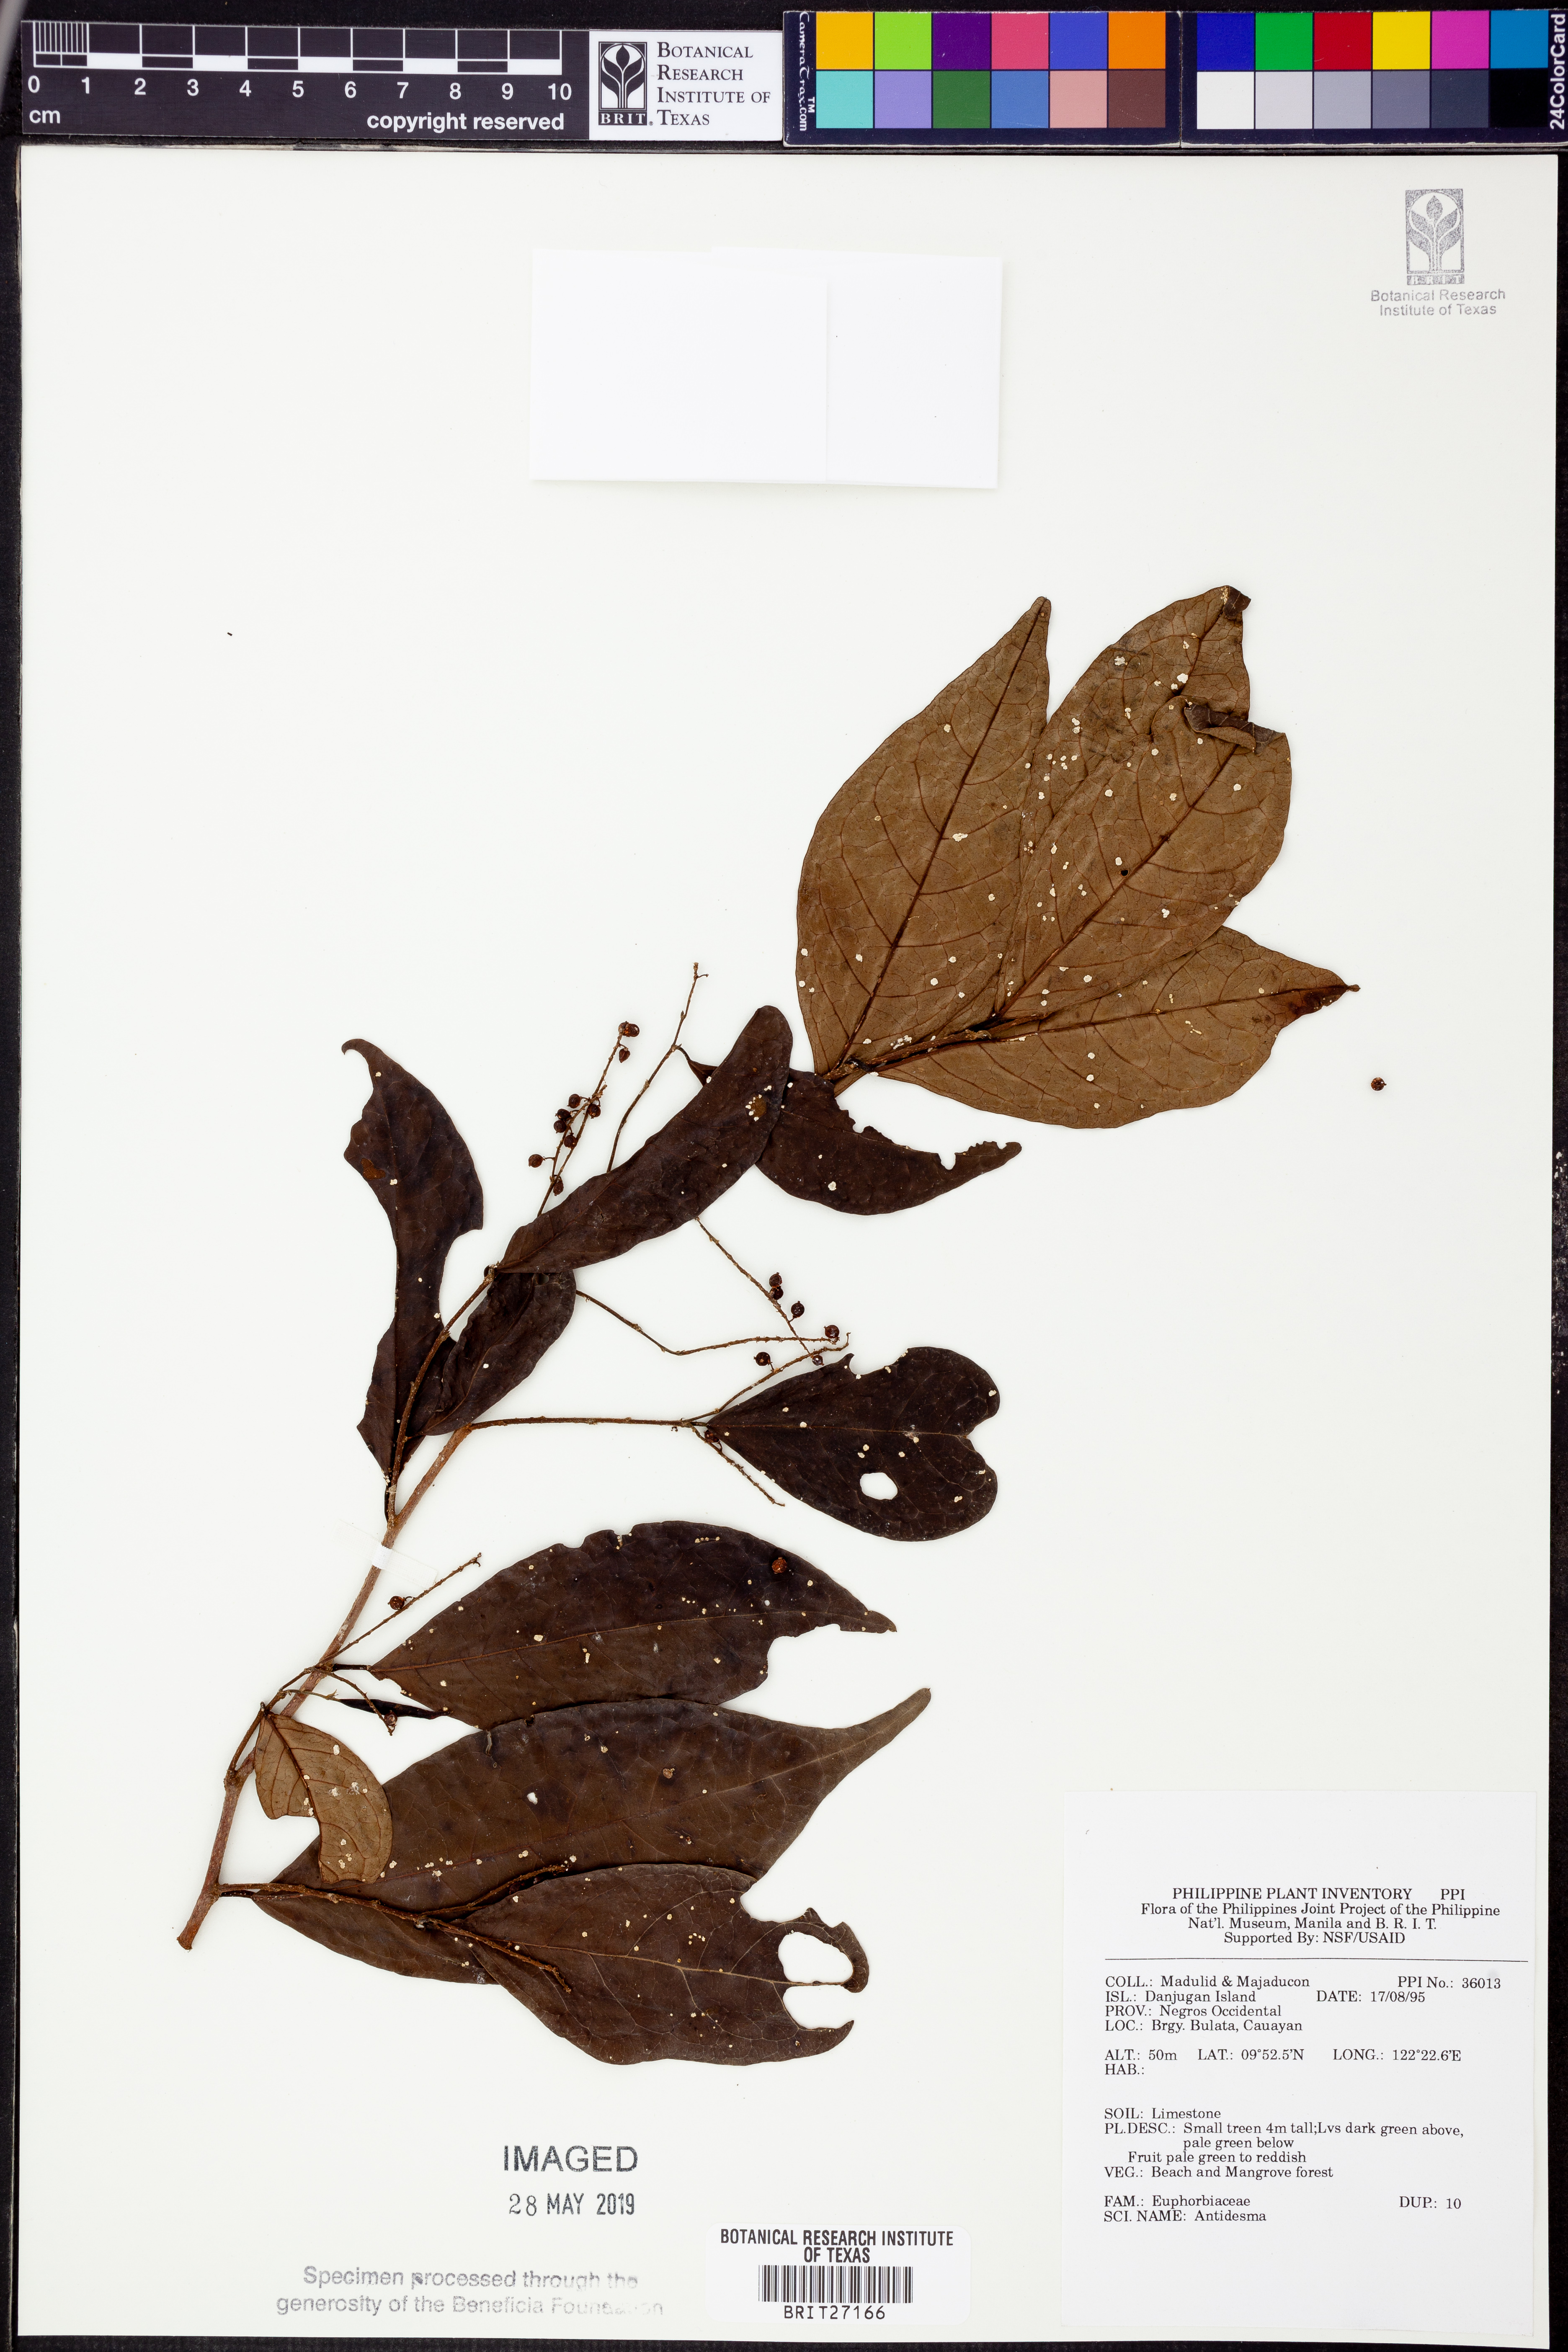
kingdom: Plantae
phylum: Tracheophyta
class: Magnoliopsida
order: Malpighiales
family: Phyllanthaceae
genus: Antidesma
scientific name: Antidesma
